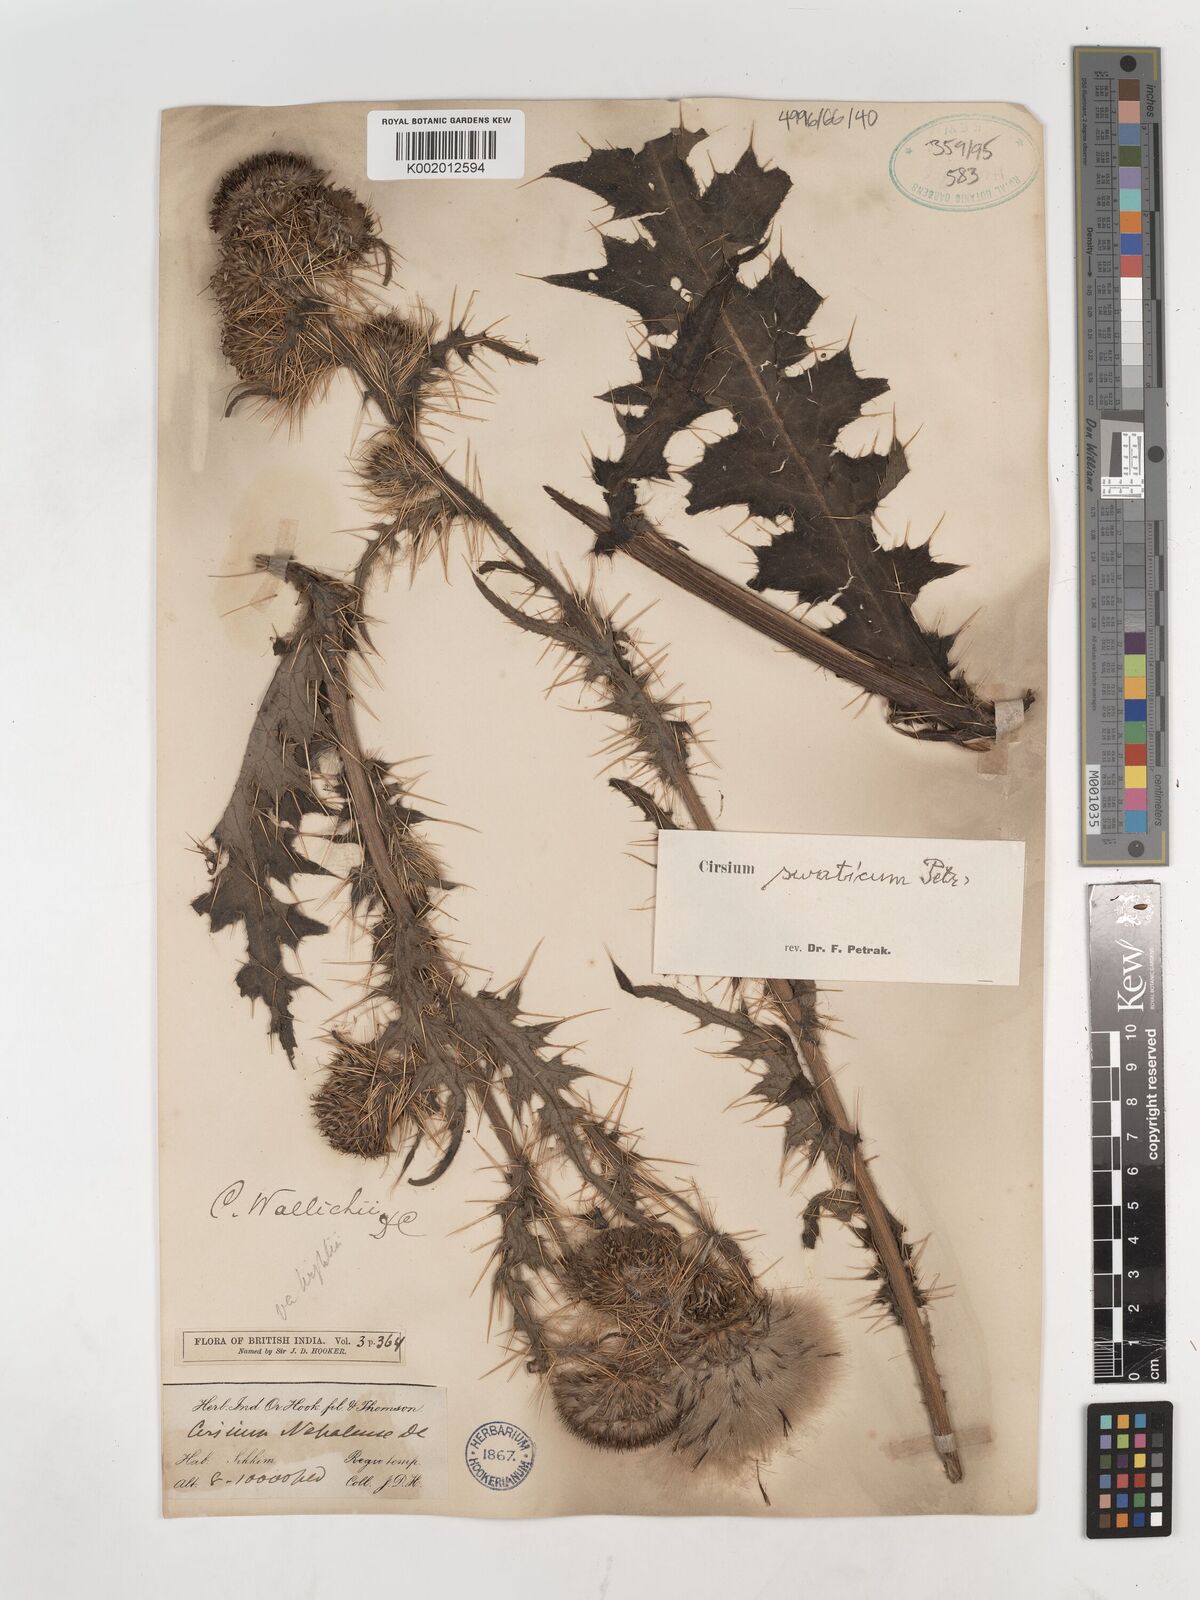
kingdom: Plantae
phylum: Tracheophyta
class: Magnoliopsida
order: Asterales
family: Asteraceae
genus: Cirsium
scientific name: Cirsium wallichii
